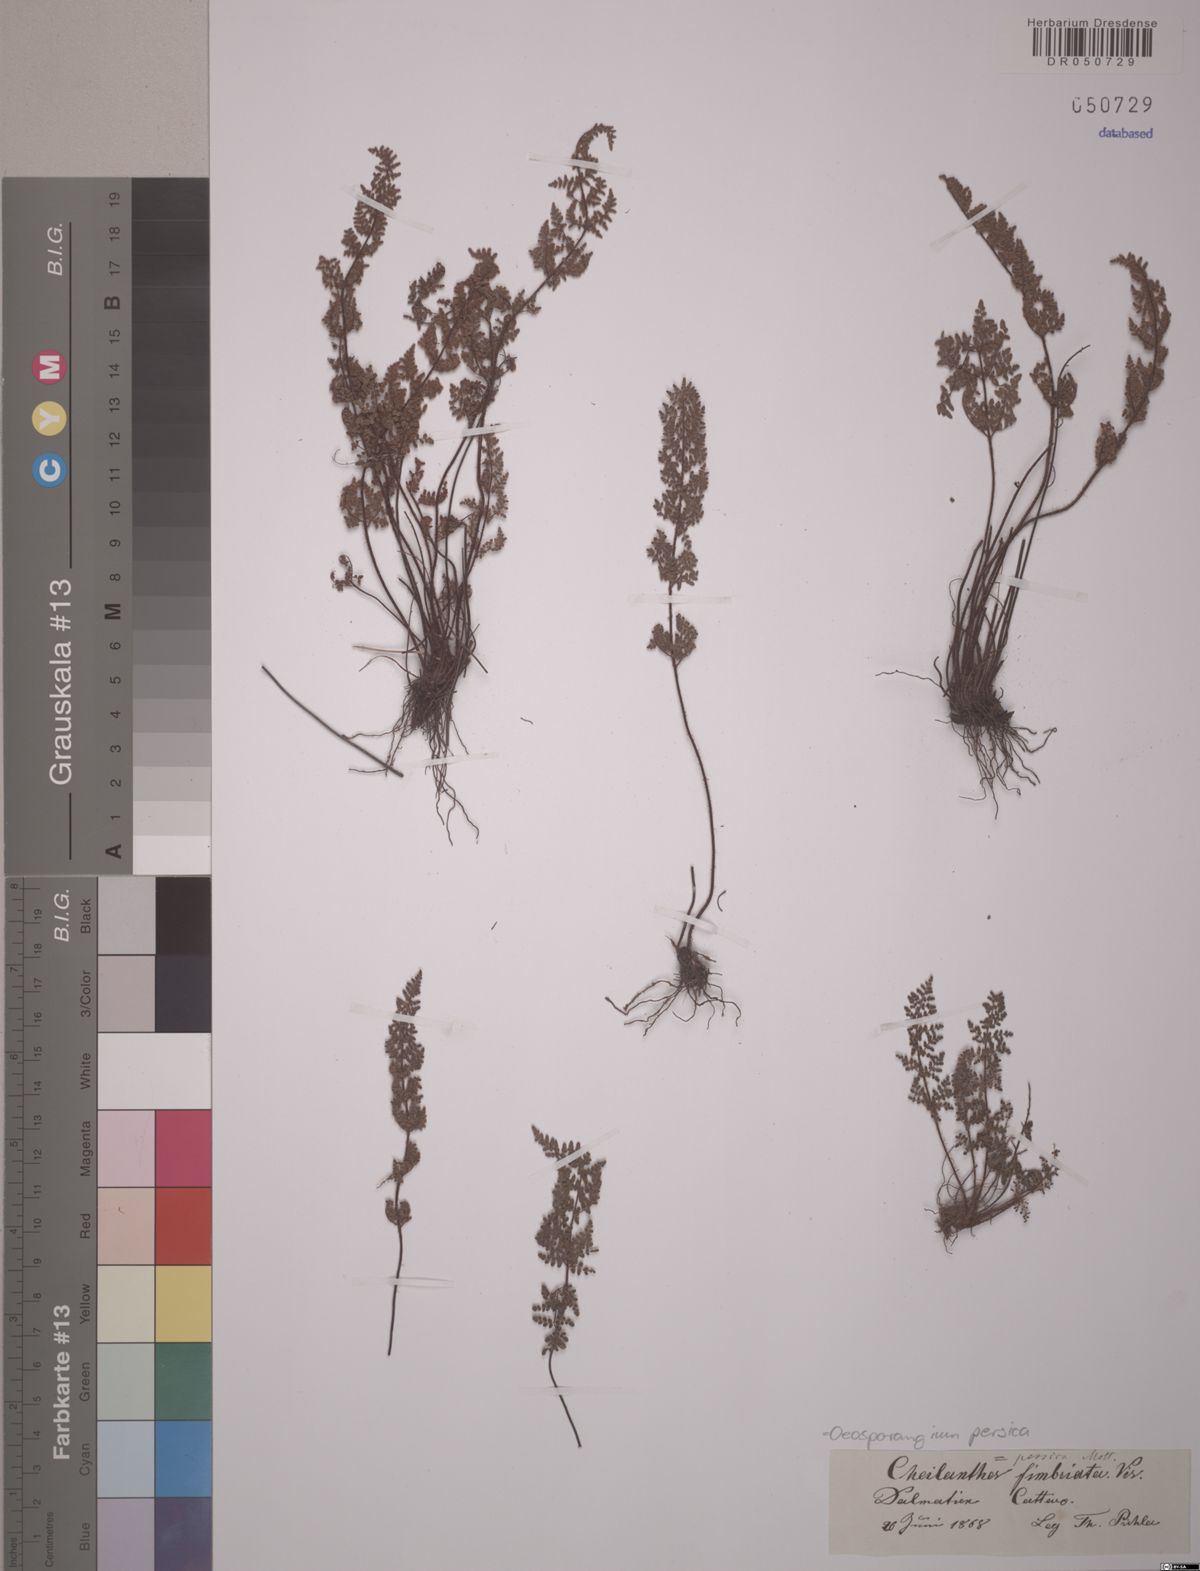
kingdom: Plantae
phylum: Tracheophyta
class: Polypodiopsida
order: Polypodiales
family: Pteridaceae
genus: Oeosporangium
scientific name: Oeosporangium persicum
